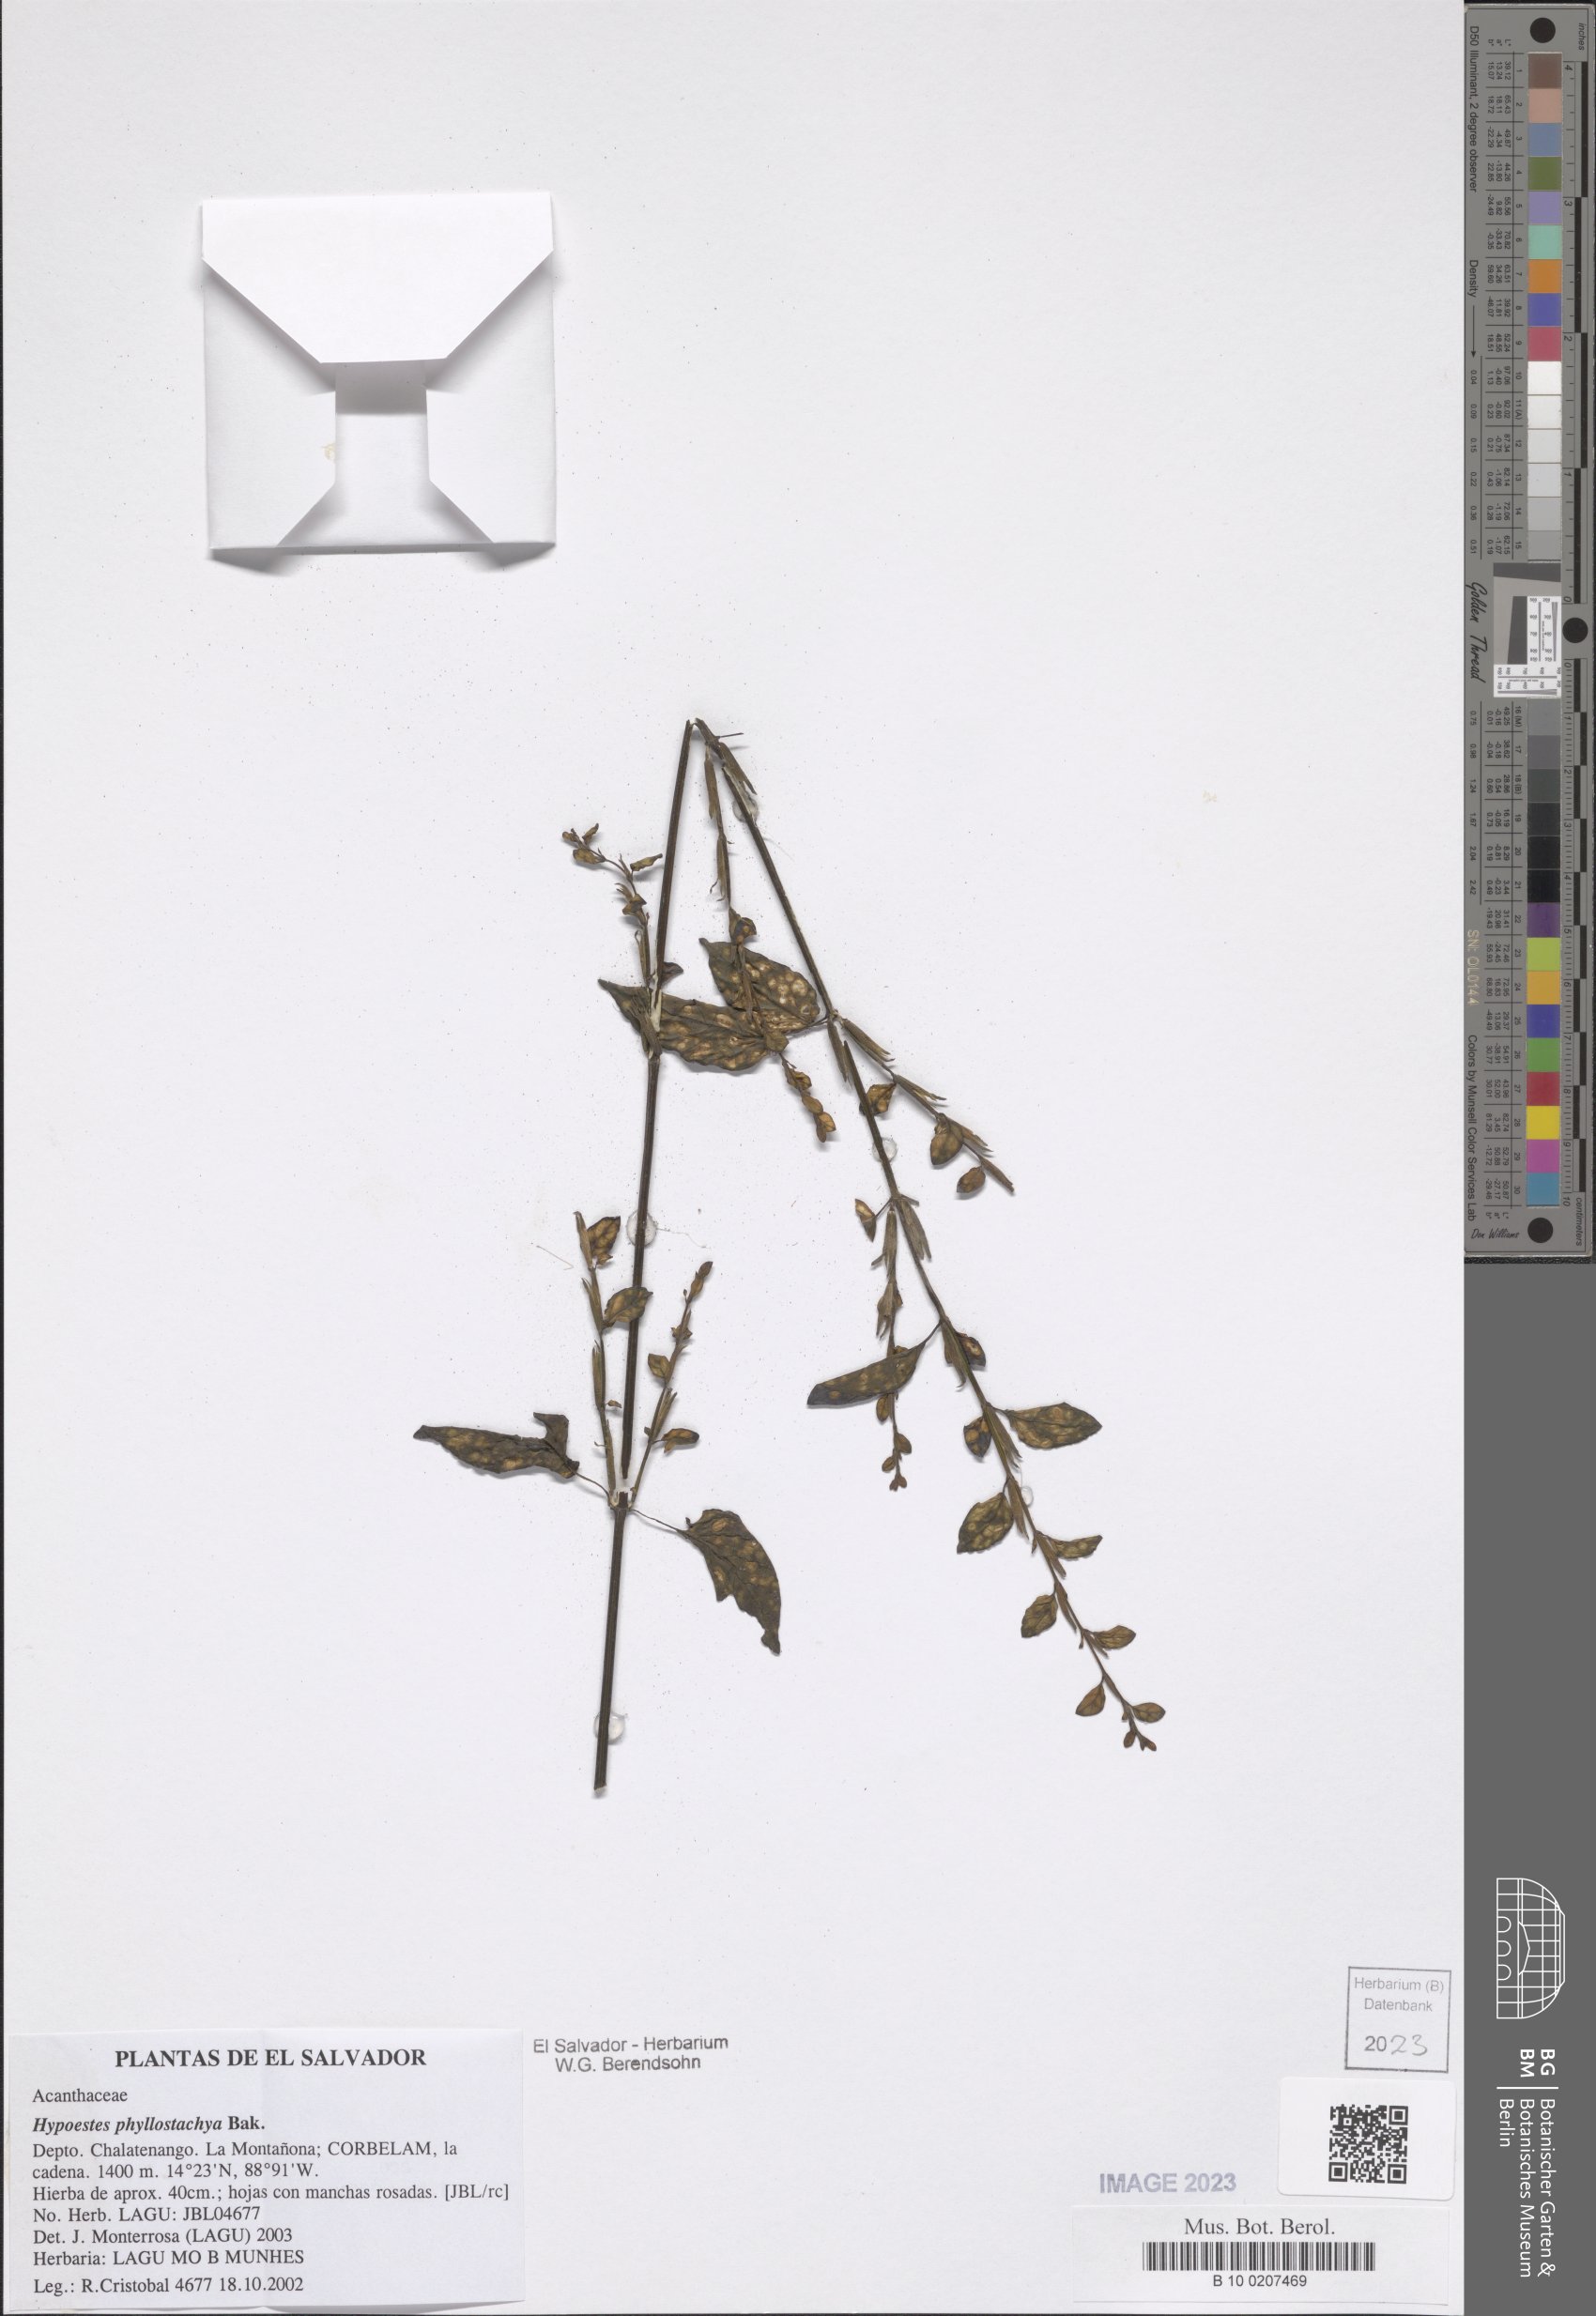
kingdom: Plantae
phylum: Tracheophyta
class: Magnoliopsida
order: Lamiales
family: Acanthaceae
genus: Hypoestes
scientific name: Hypoestes phyllostachya
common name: Polkadot-plant
